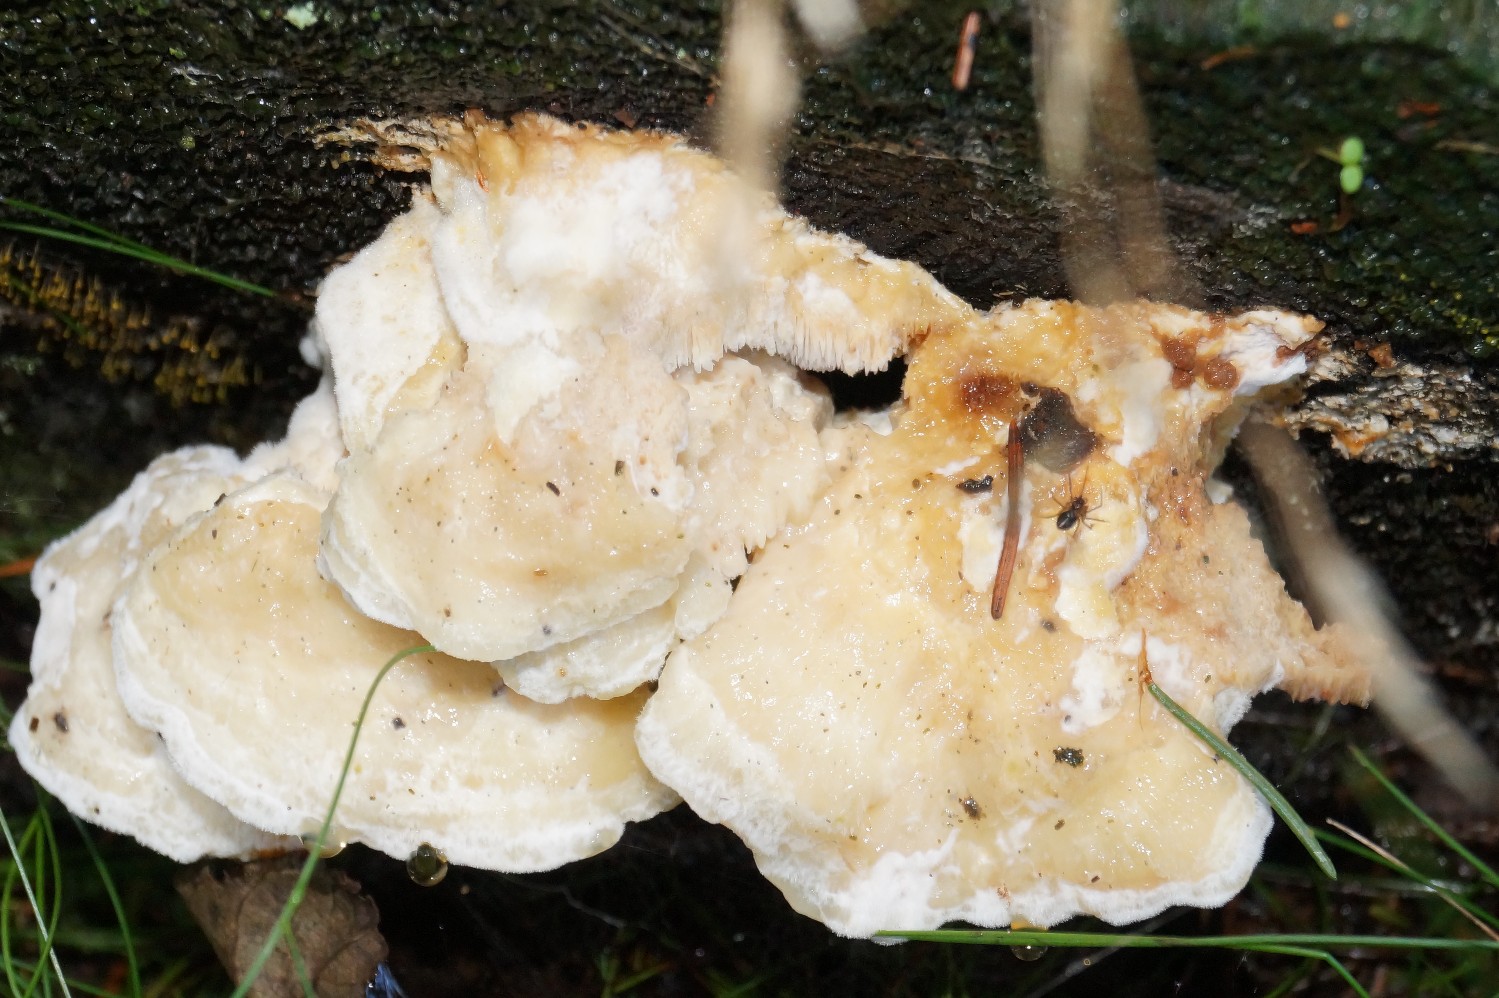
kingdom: Fungi
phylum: Basidiomycota
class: Agaricomycetes
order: Polyporales
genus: Fuscopostia
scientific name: Fuscopostia fragilis
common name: brunende kødporesvamp
